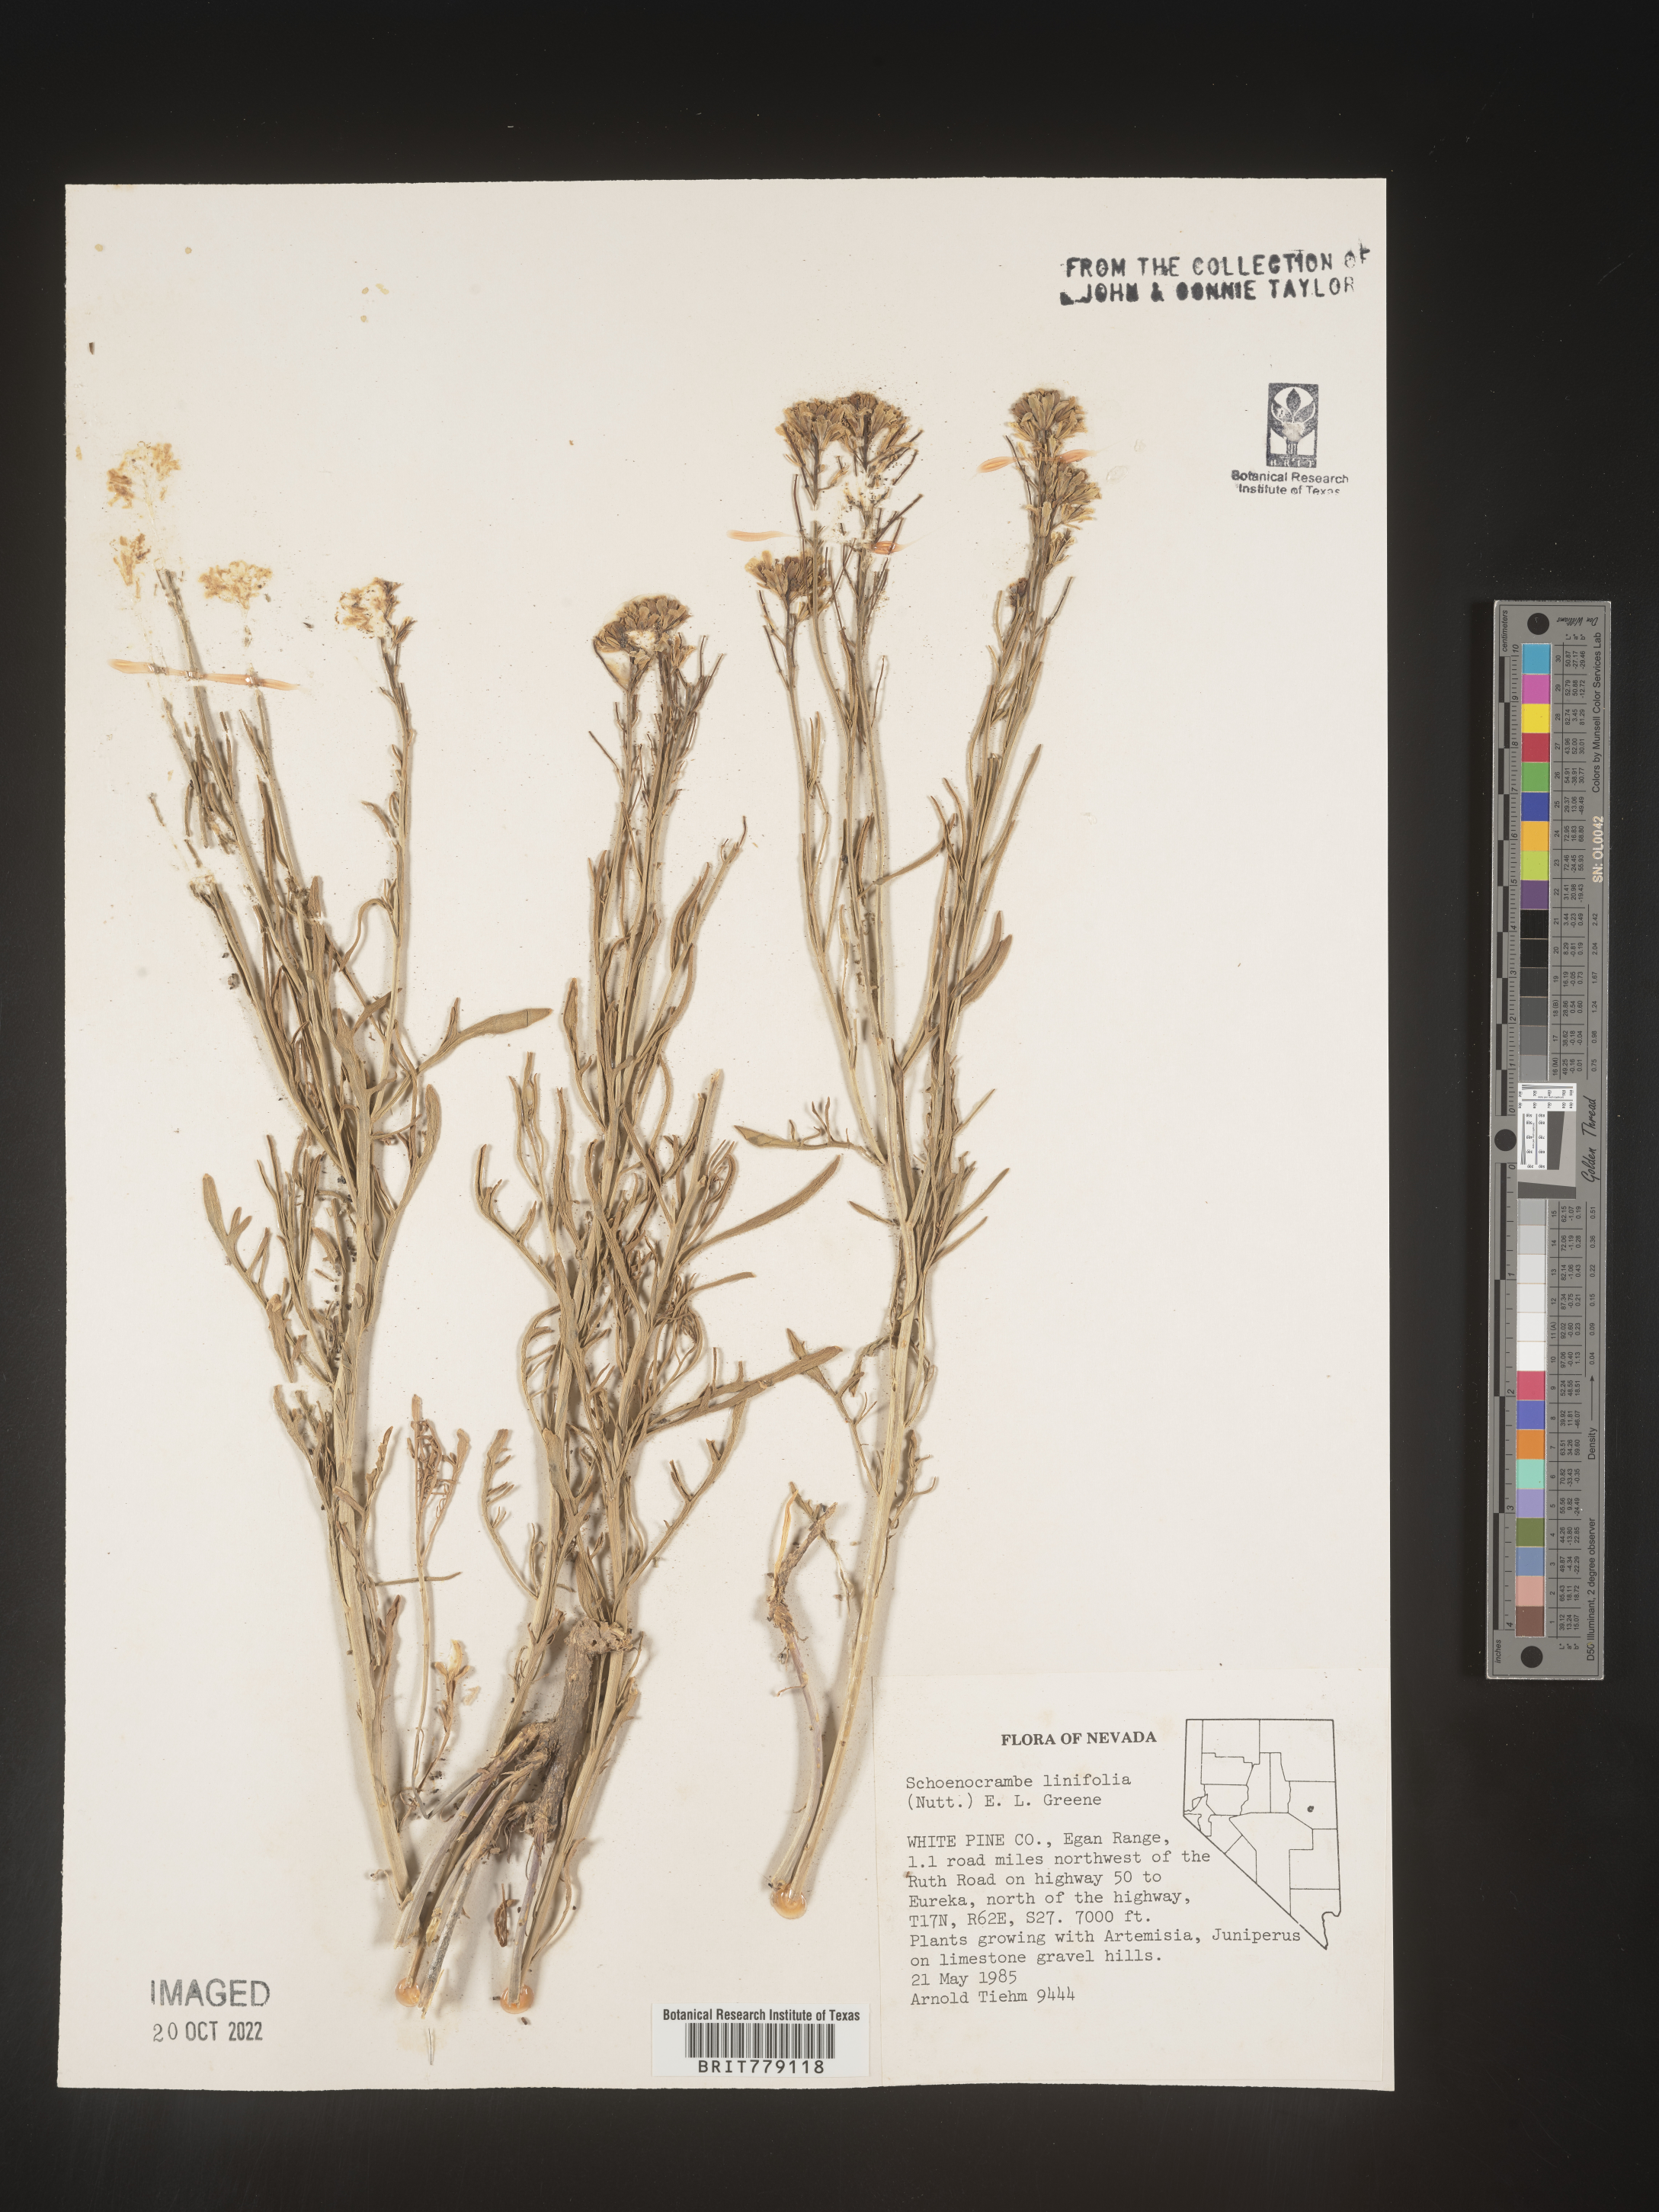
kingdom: Plantae
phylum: Tracheophyta
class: Magnoliopsida
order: Brassicales
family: Brassicaceae
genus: Hesperidanthus
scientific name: Hesperidanthus
